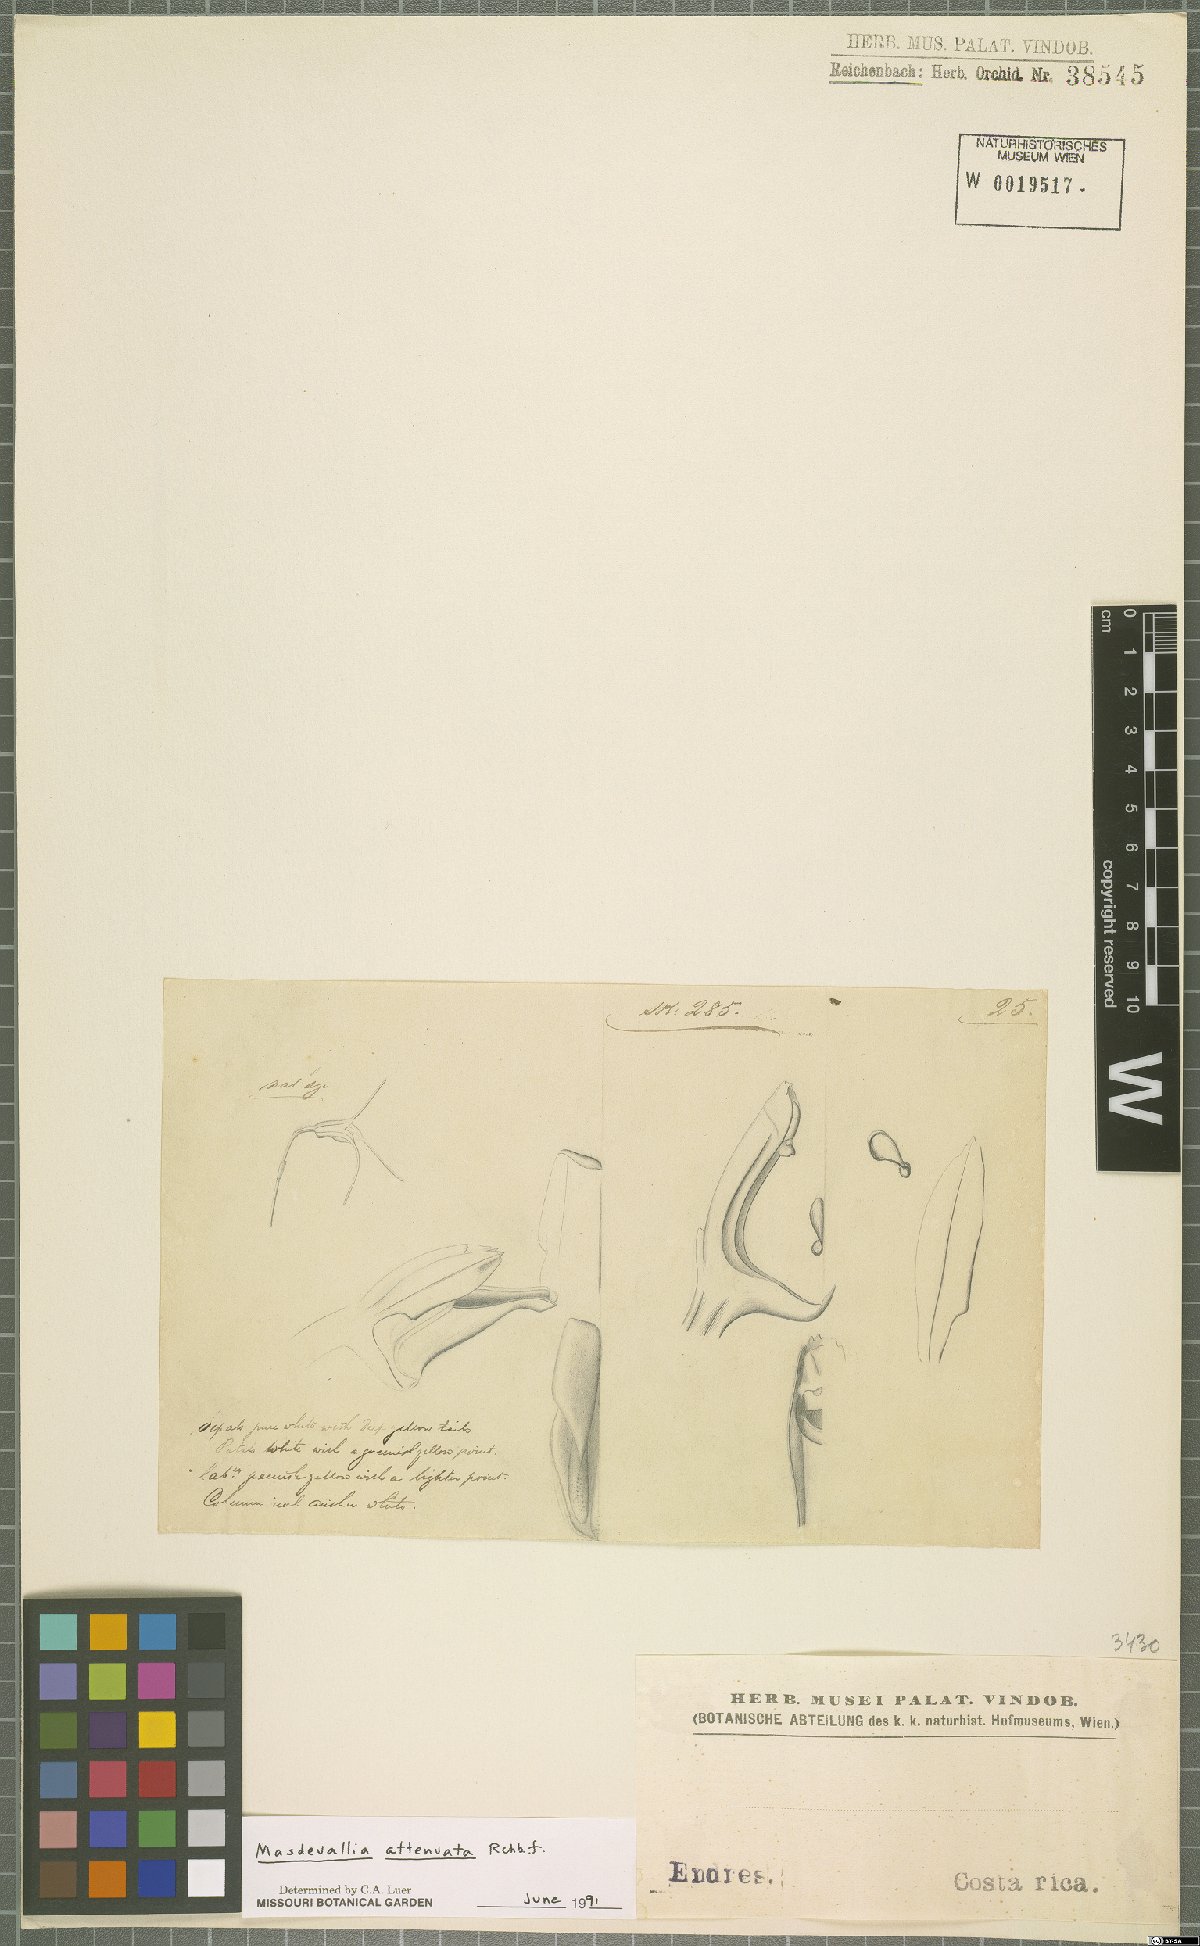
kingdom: Plantae
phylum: Tracheophyta
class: Liliopsida
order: Asparagales
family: Orchidaceae
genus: Masdevallia
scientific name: Masdevallia attenuata
